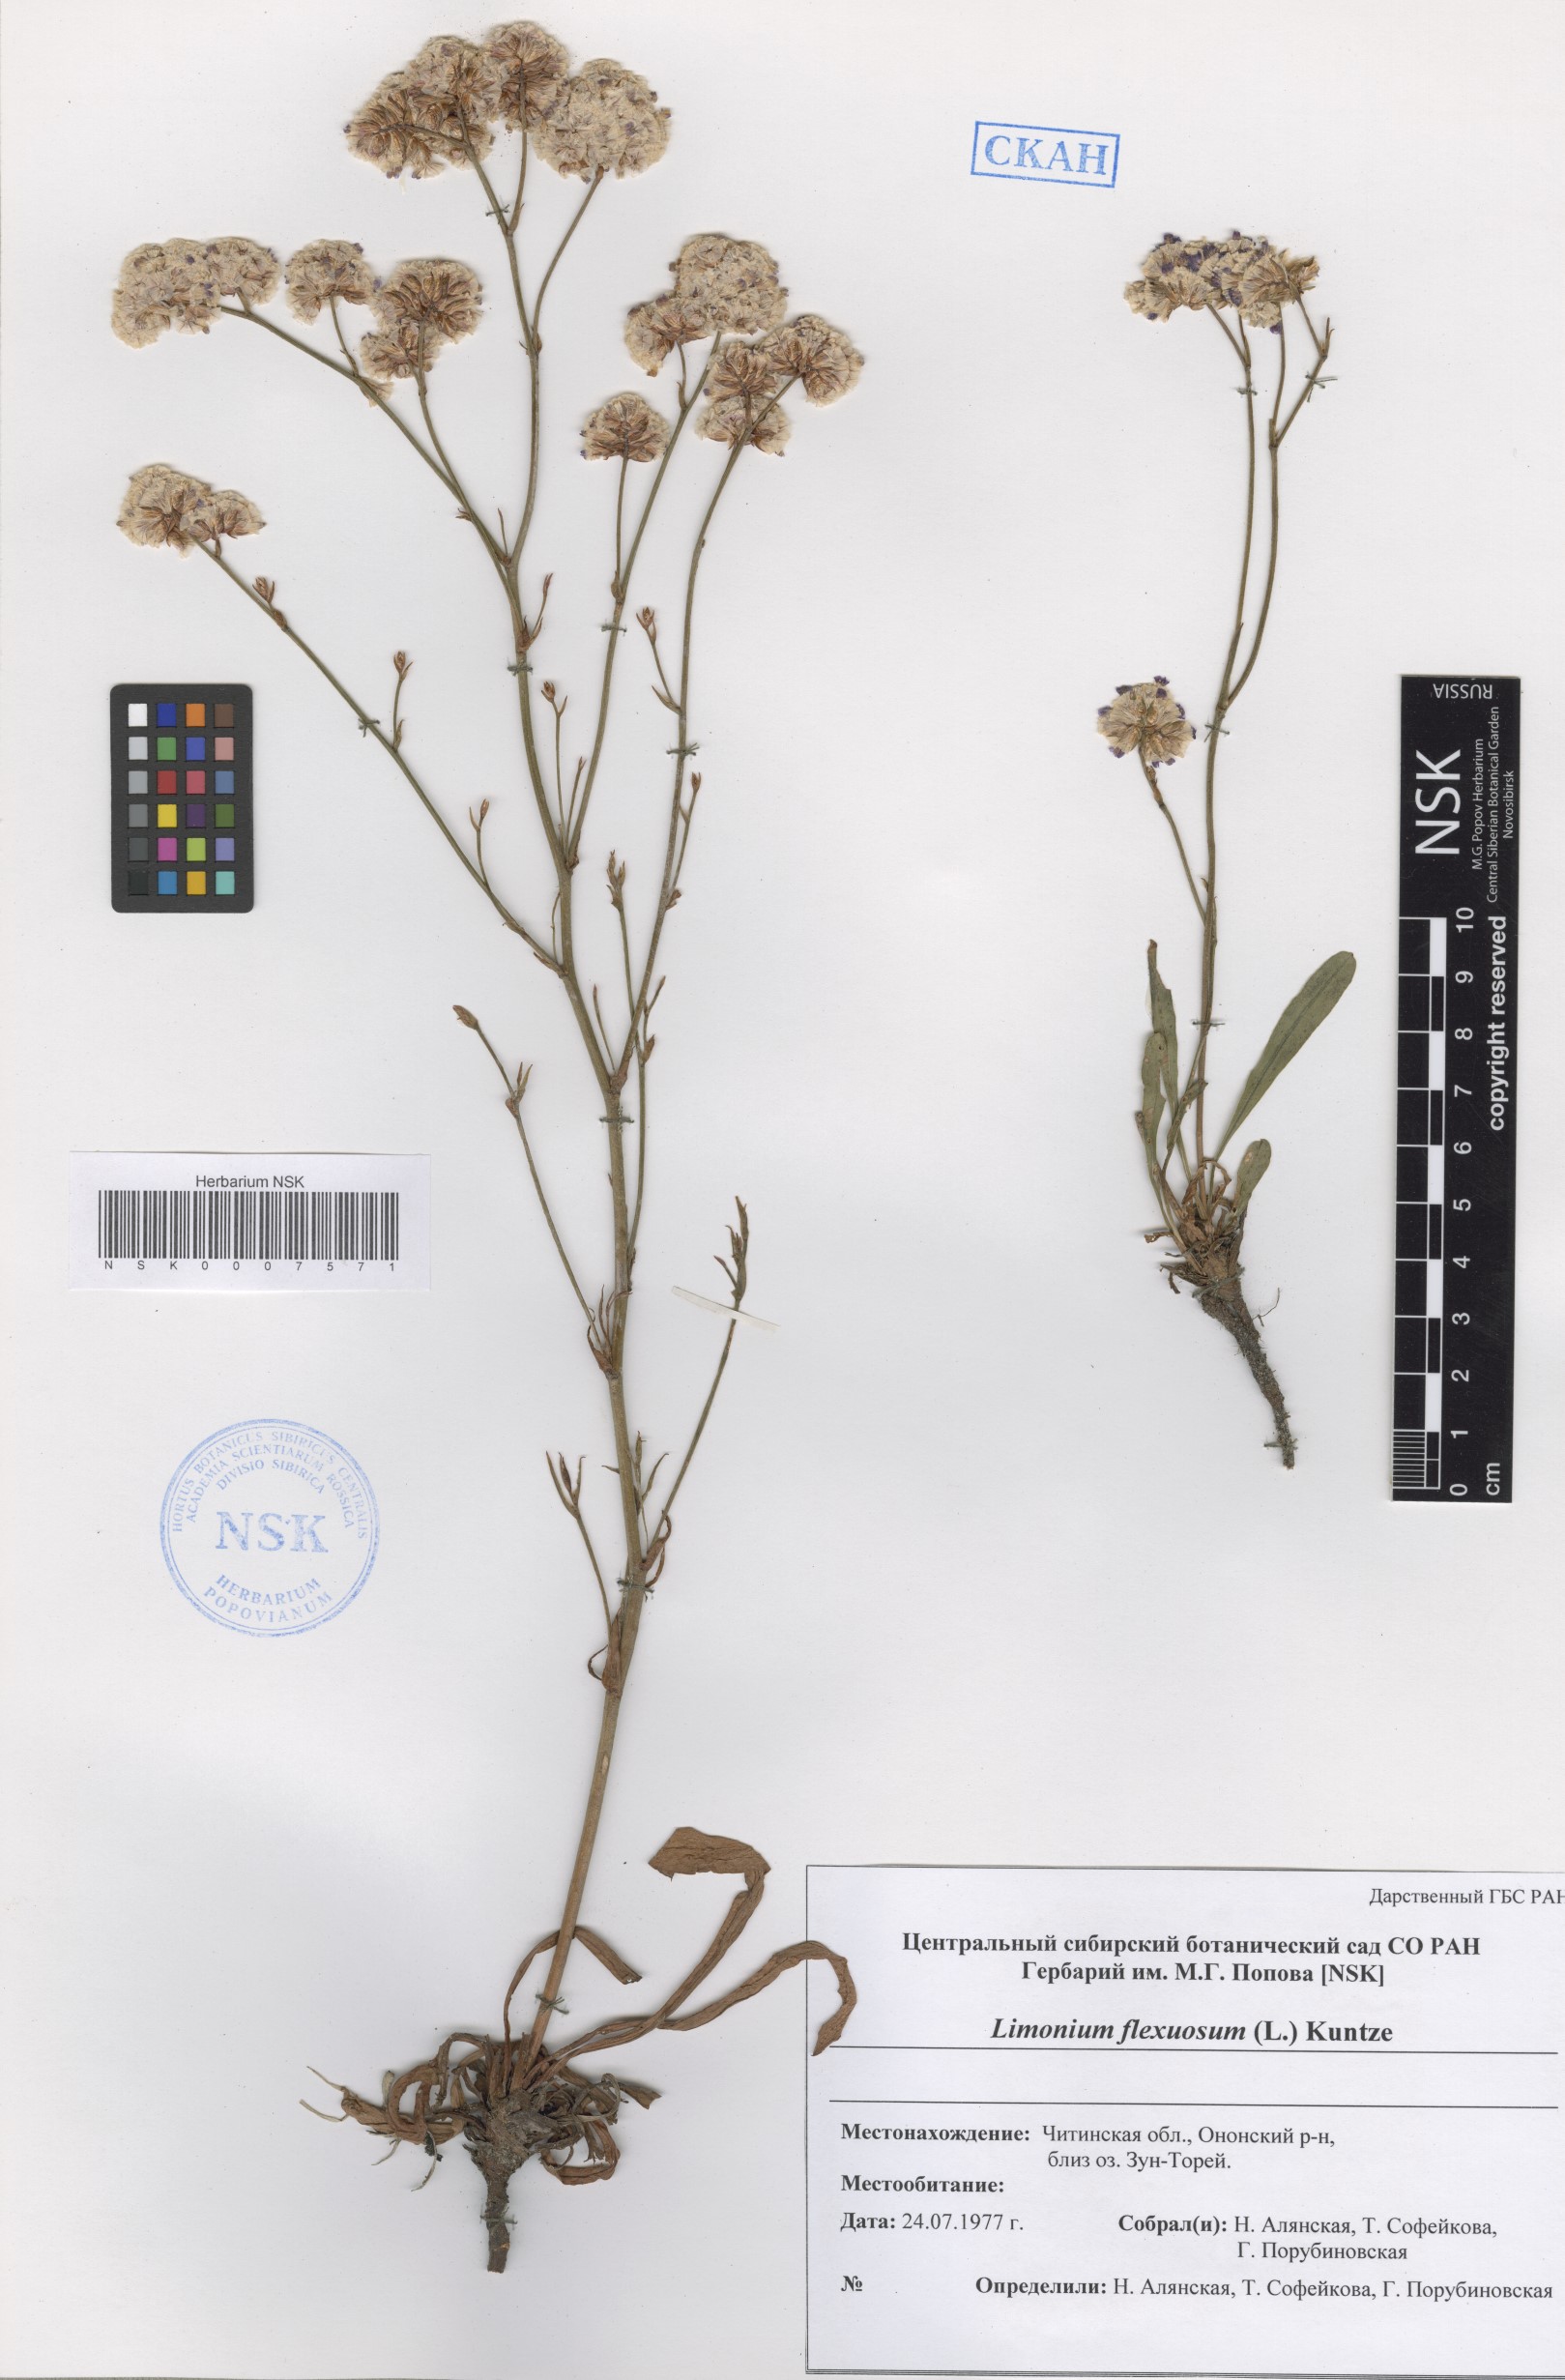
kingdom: Plantae
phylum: Tracheophyta
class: Magnoliopsida
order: Caryophyllales
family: Plumbaginaceae
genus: Limonium
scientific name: Limonium flexuosum
